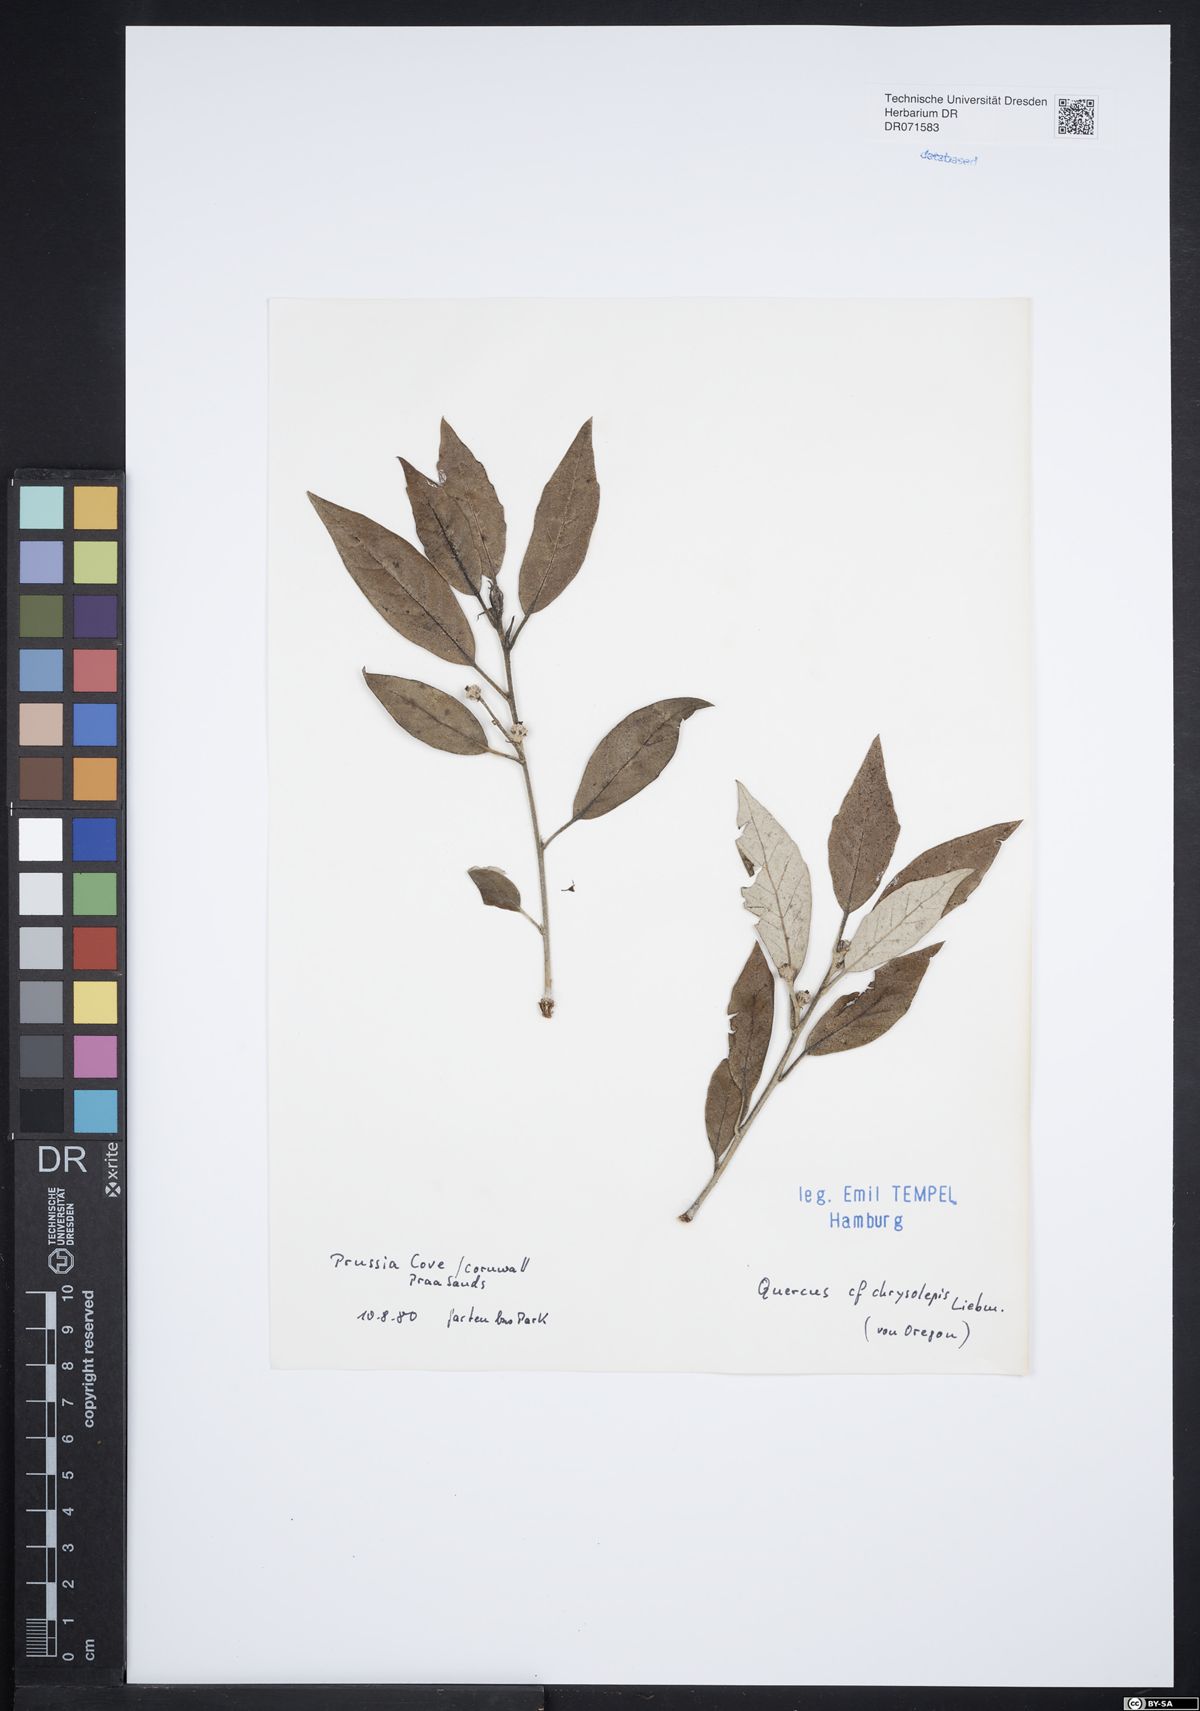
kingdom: Plantae
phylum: Tracheophyta
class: Magnoliopsida
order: Fagales
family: Fagaceae
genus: Quercus
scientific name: Quercus chrysolepis
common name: Canyon live oak
